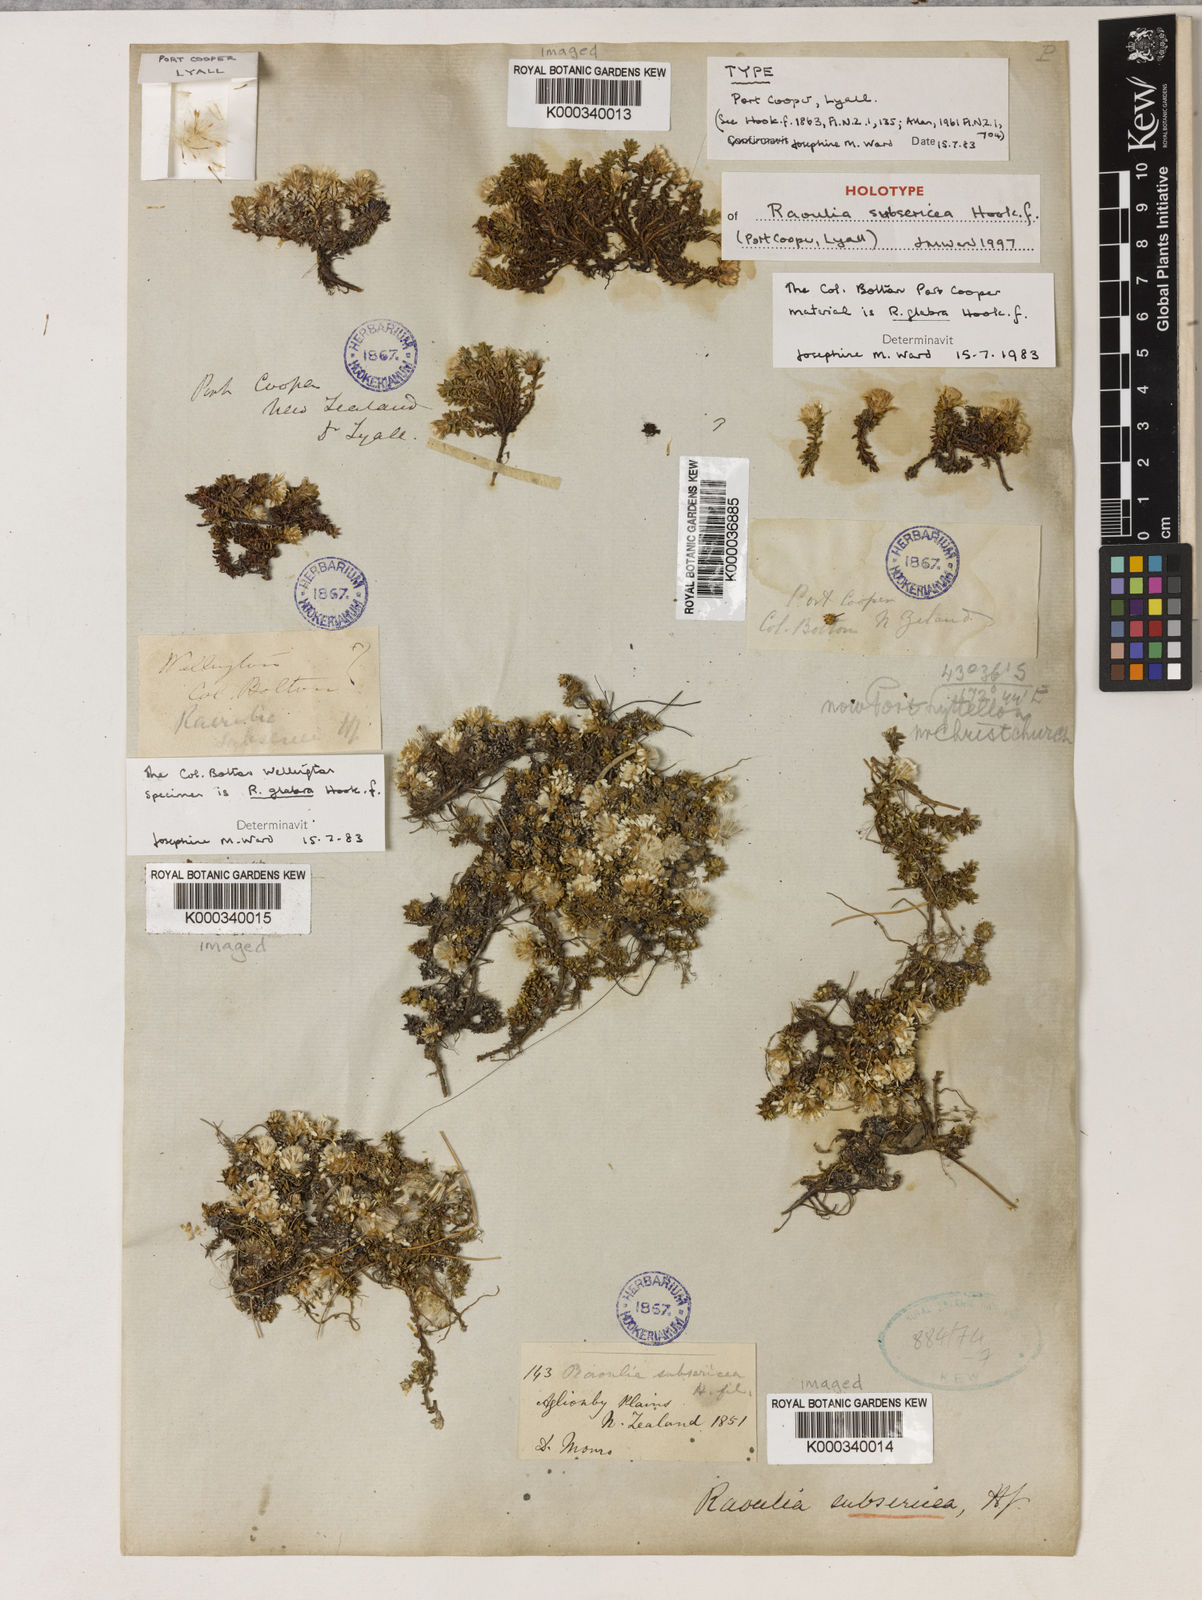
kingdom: Plantae
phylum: Tracheophyta
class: Magnoliopsida
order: Asterales
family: Asteraceae
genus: Raoulia
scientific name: Raoulia glabra
